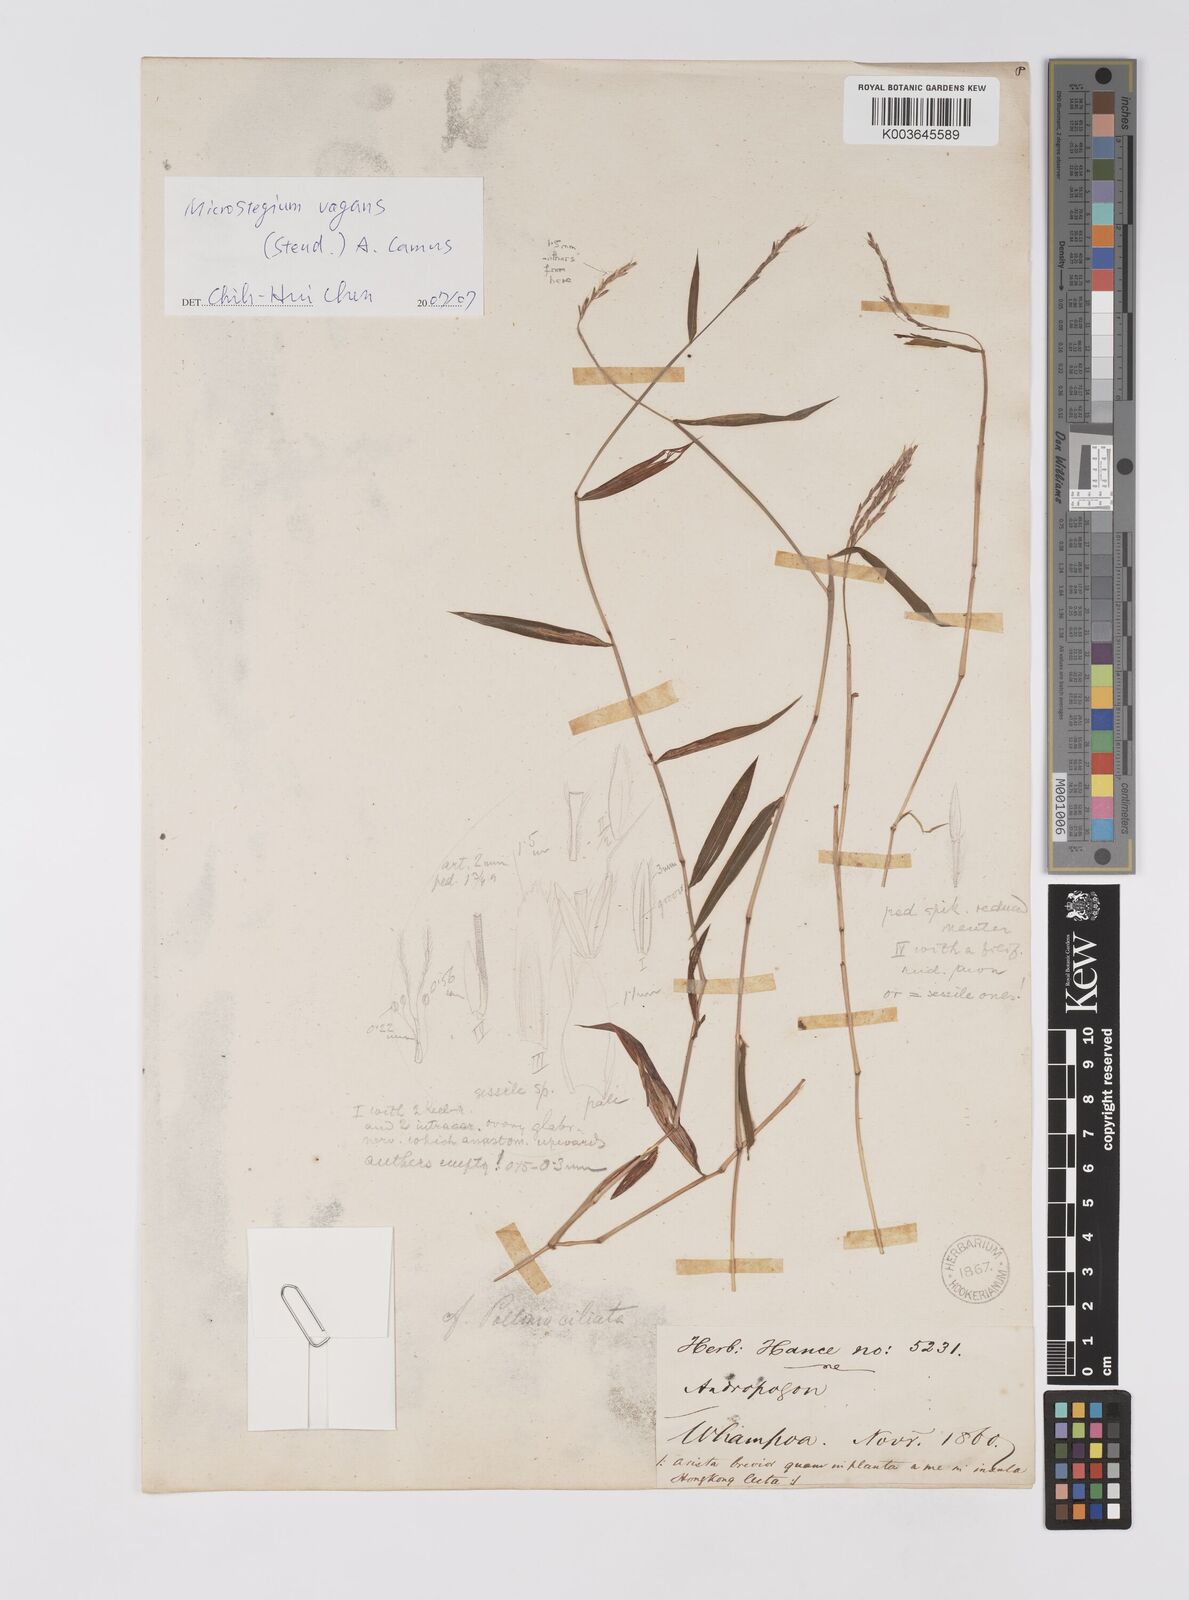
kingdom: Plantae
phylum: Tracheophyta
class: Liliopsida
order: Poales
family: Poaceae
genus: Microstegium
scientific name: Microstegium
